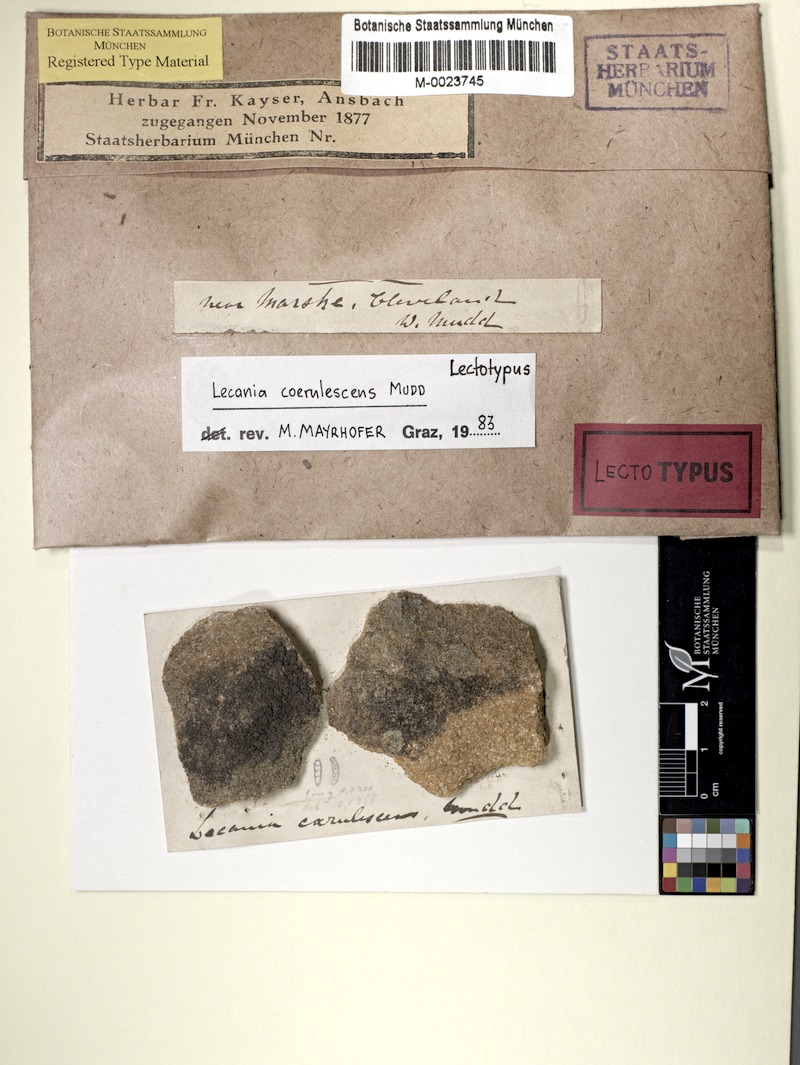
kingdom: Fungi
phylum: Ascomycota
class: Lecanoromycetes
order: Lecanorales
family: Ramalinaceae
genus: Lecania
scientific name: Lecania coerulescens
